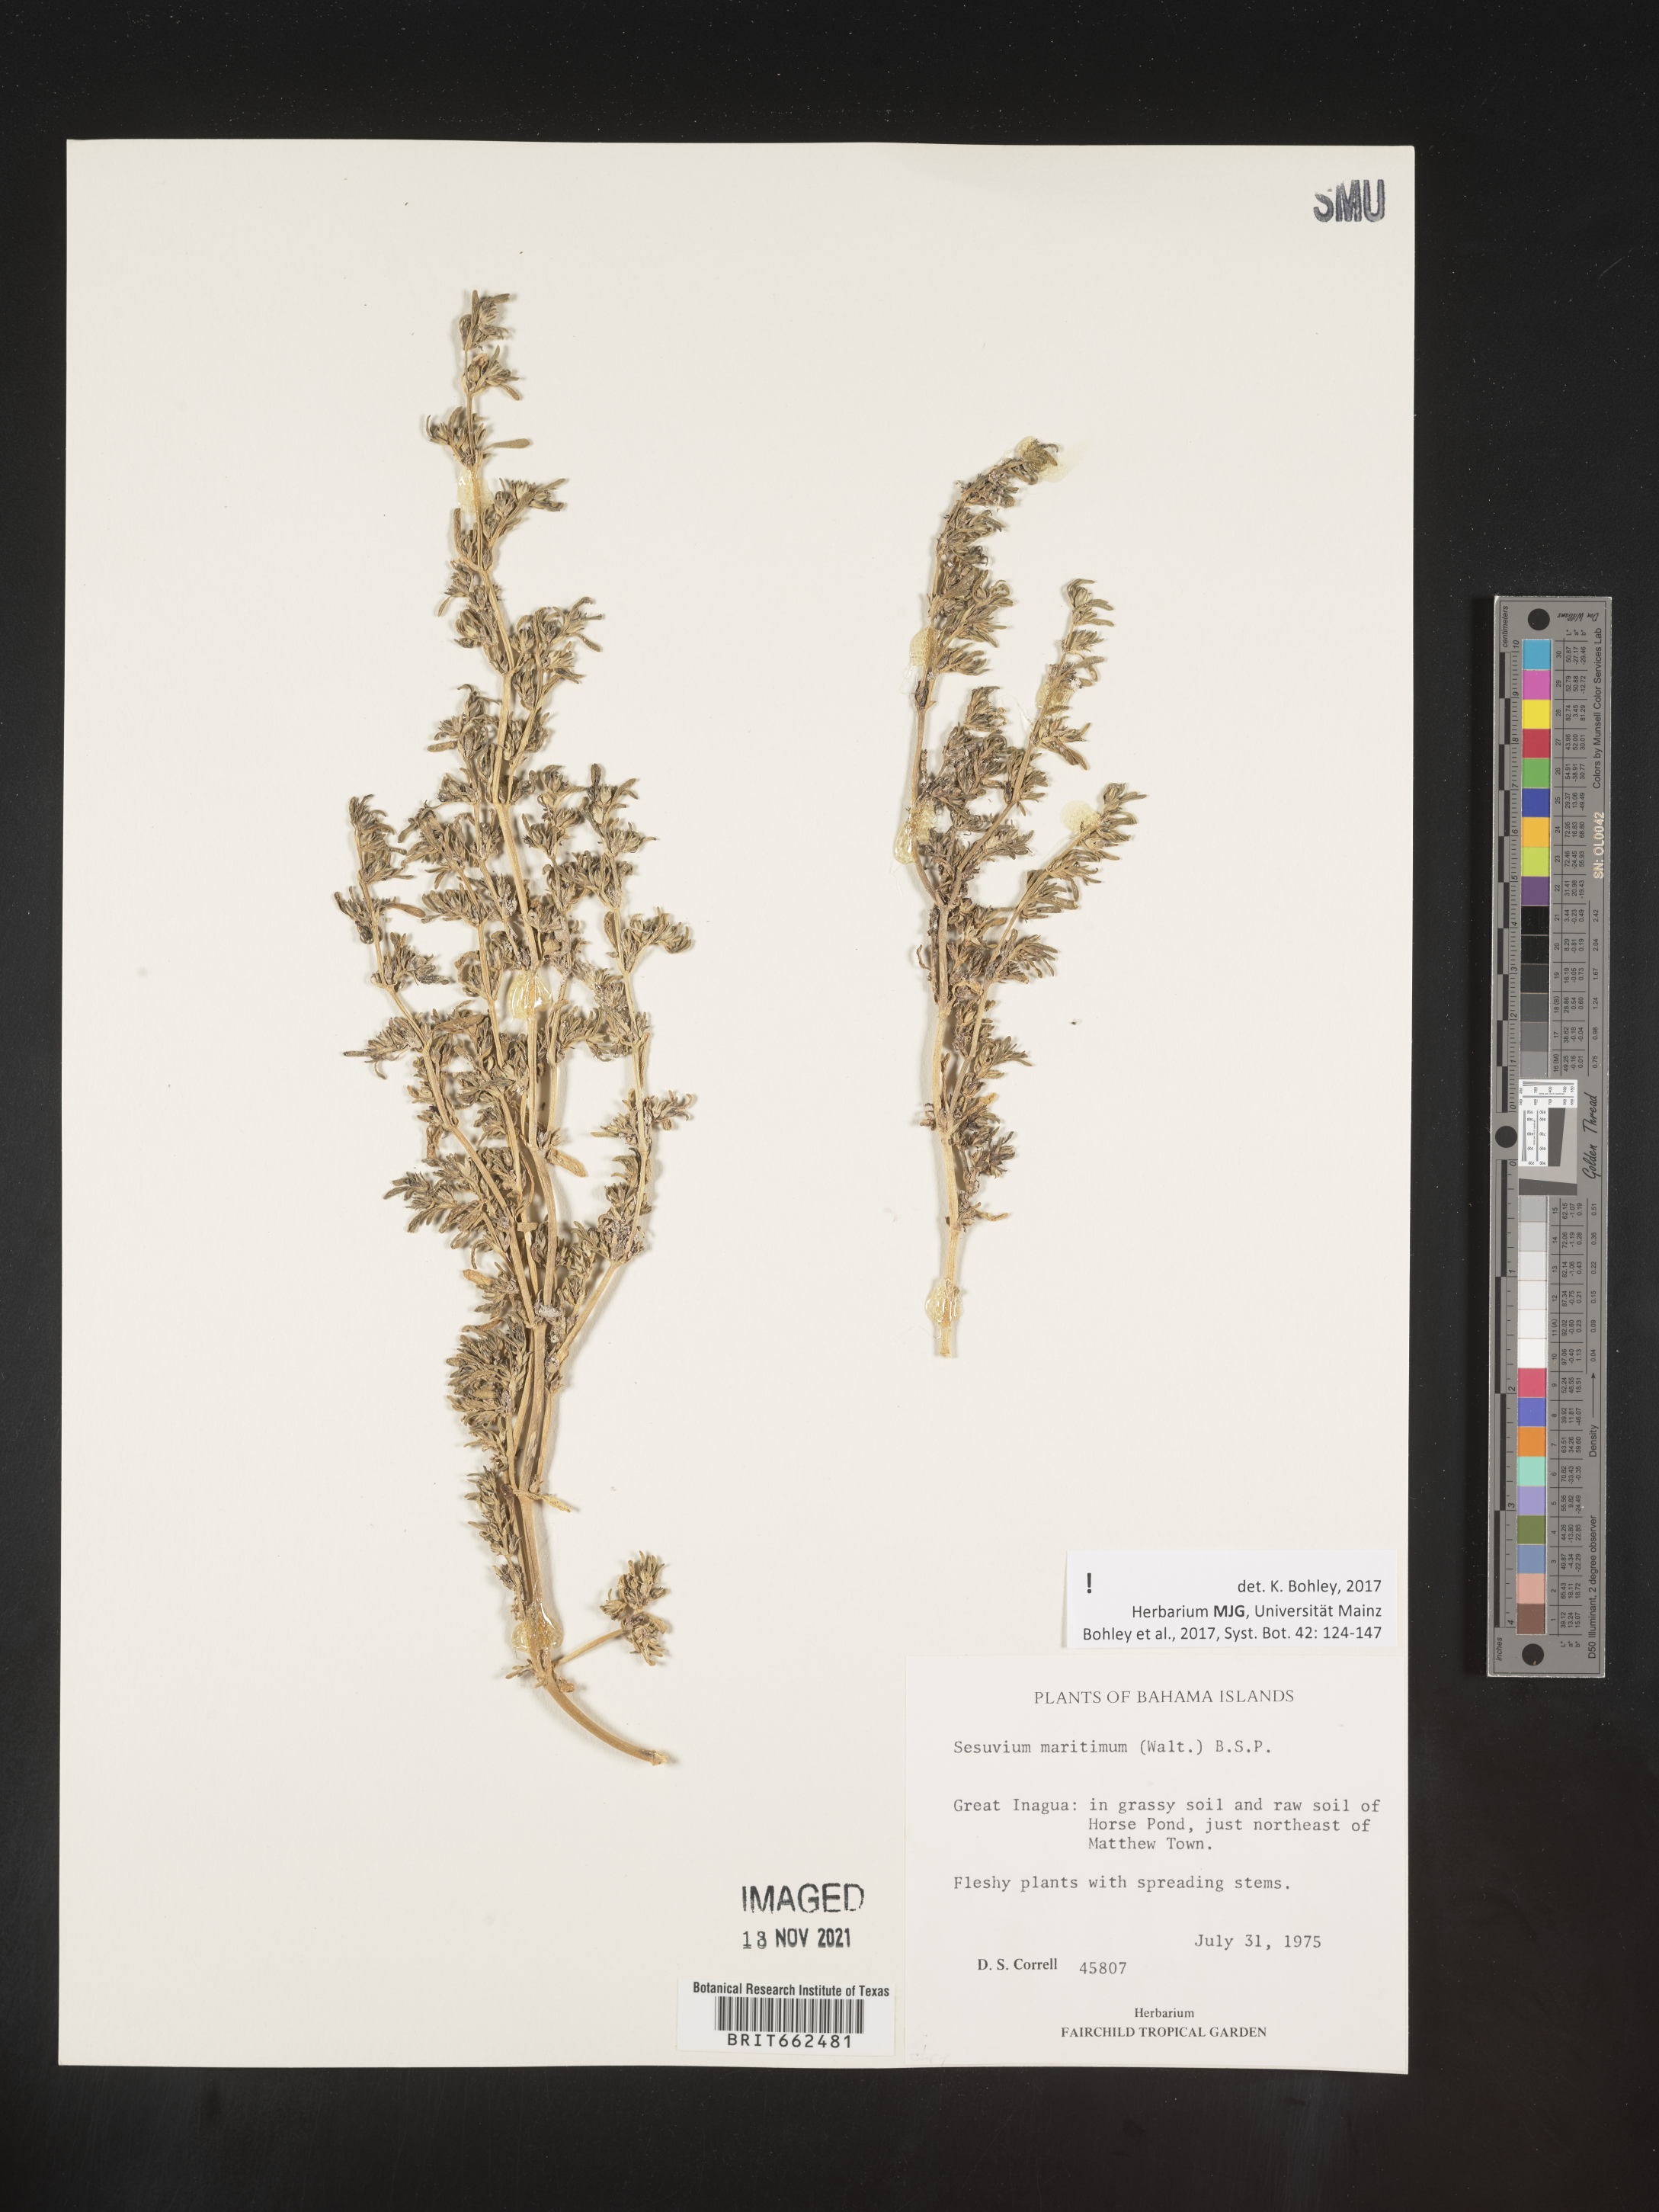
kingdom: Plantae
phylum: Tracheophyta
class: Magnoliopsida
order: Caryophyllales
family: Aizoaceae
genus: Sesuvium
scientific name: Sesuvium
